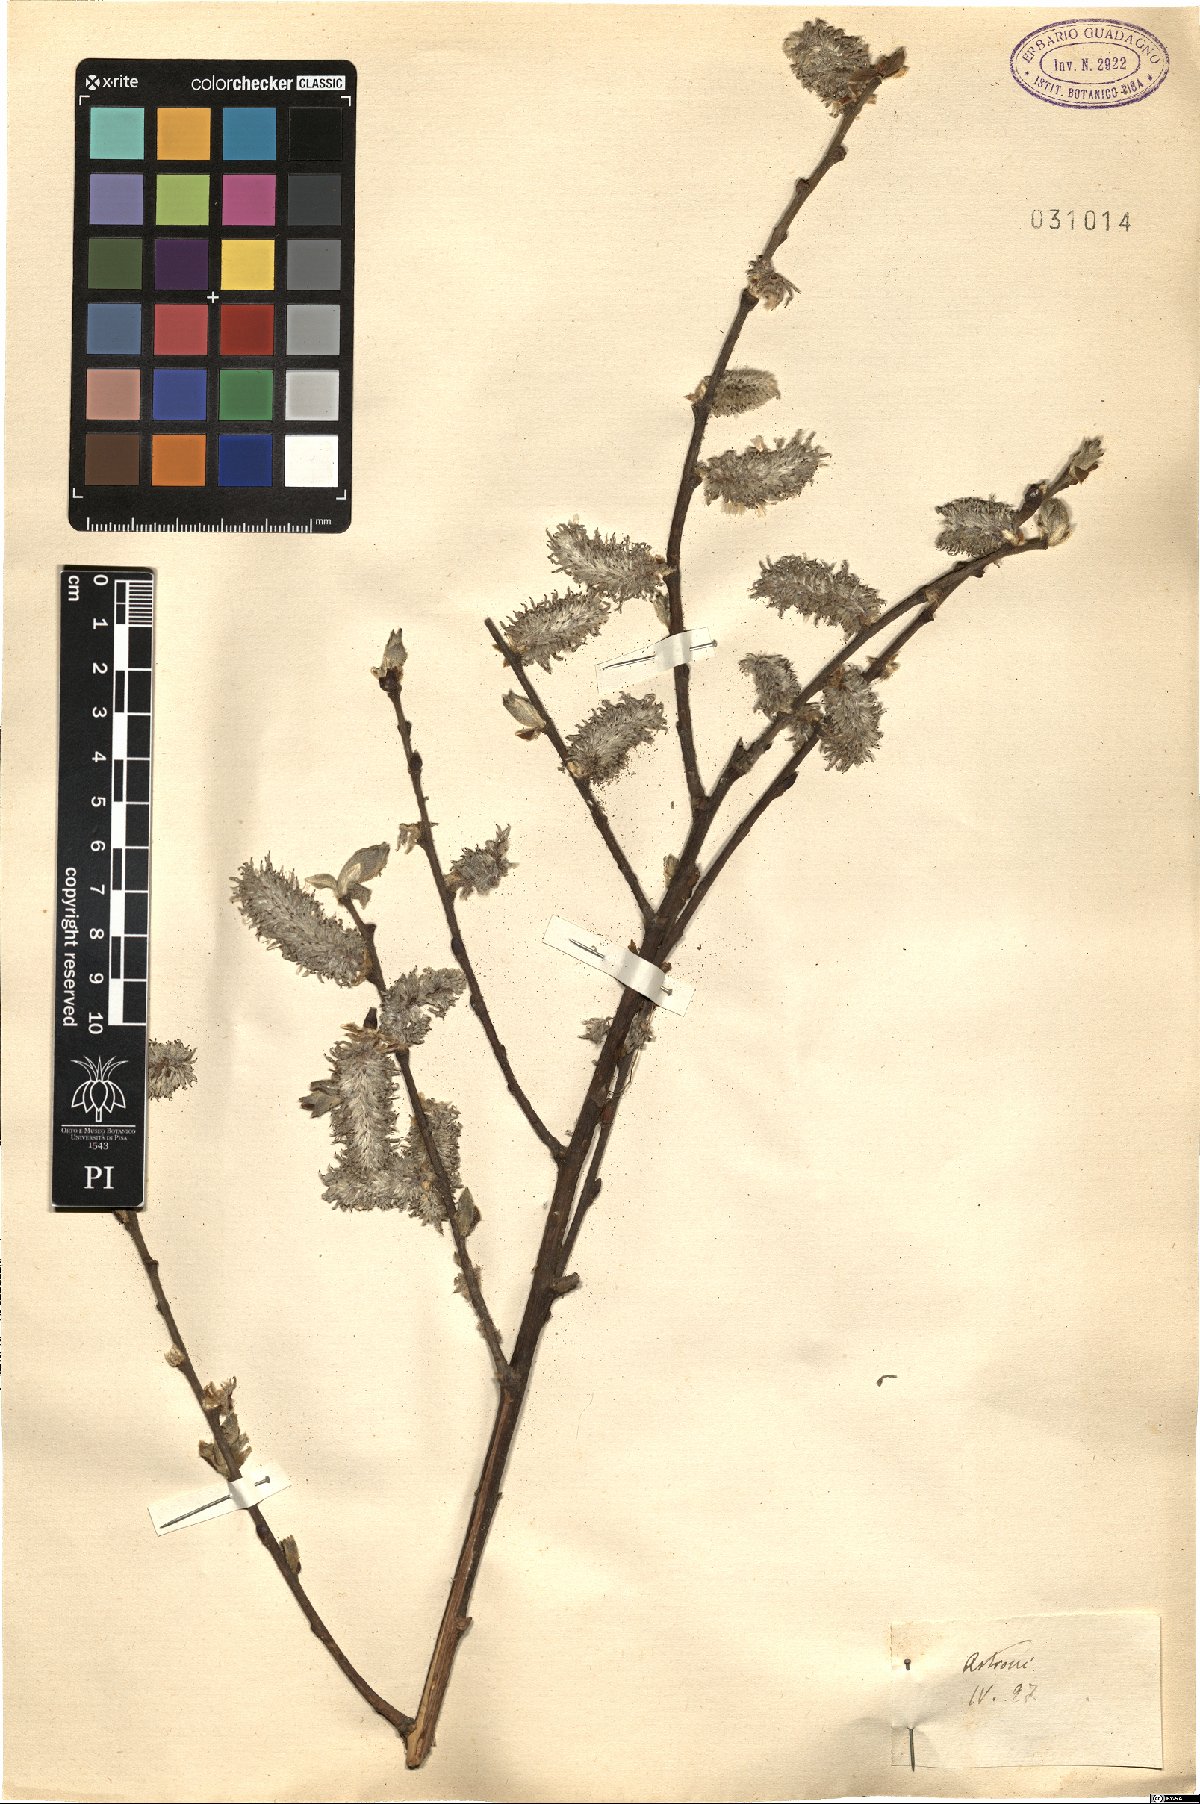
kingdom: Plantae
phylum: Tracheophyta
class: Magnoliopsida
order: Malpighiales
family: Salicaceae
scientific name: Salicaceae
